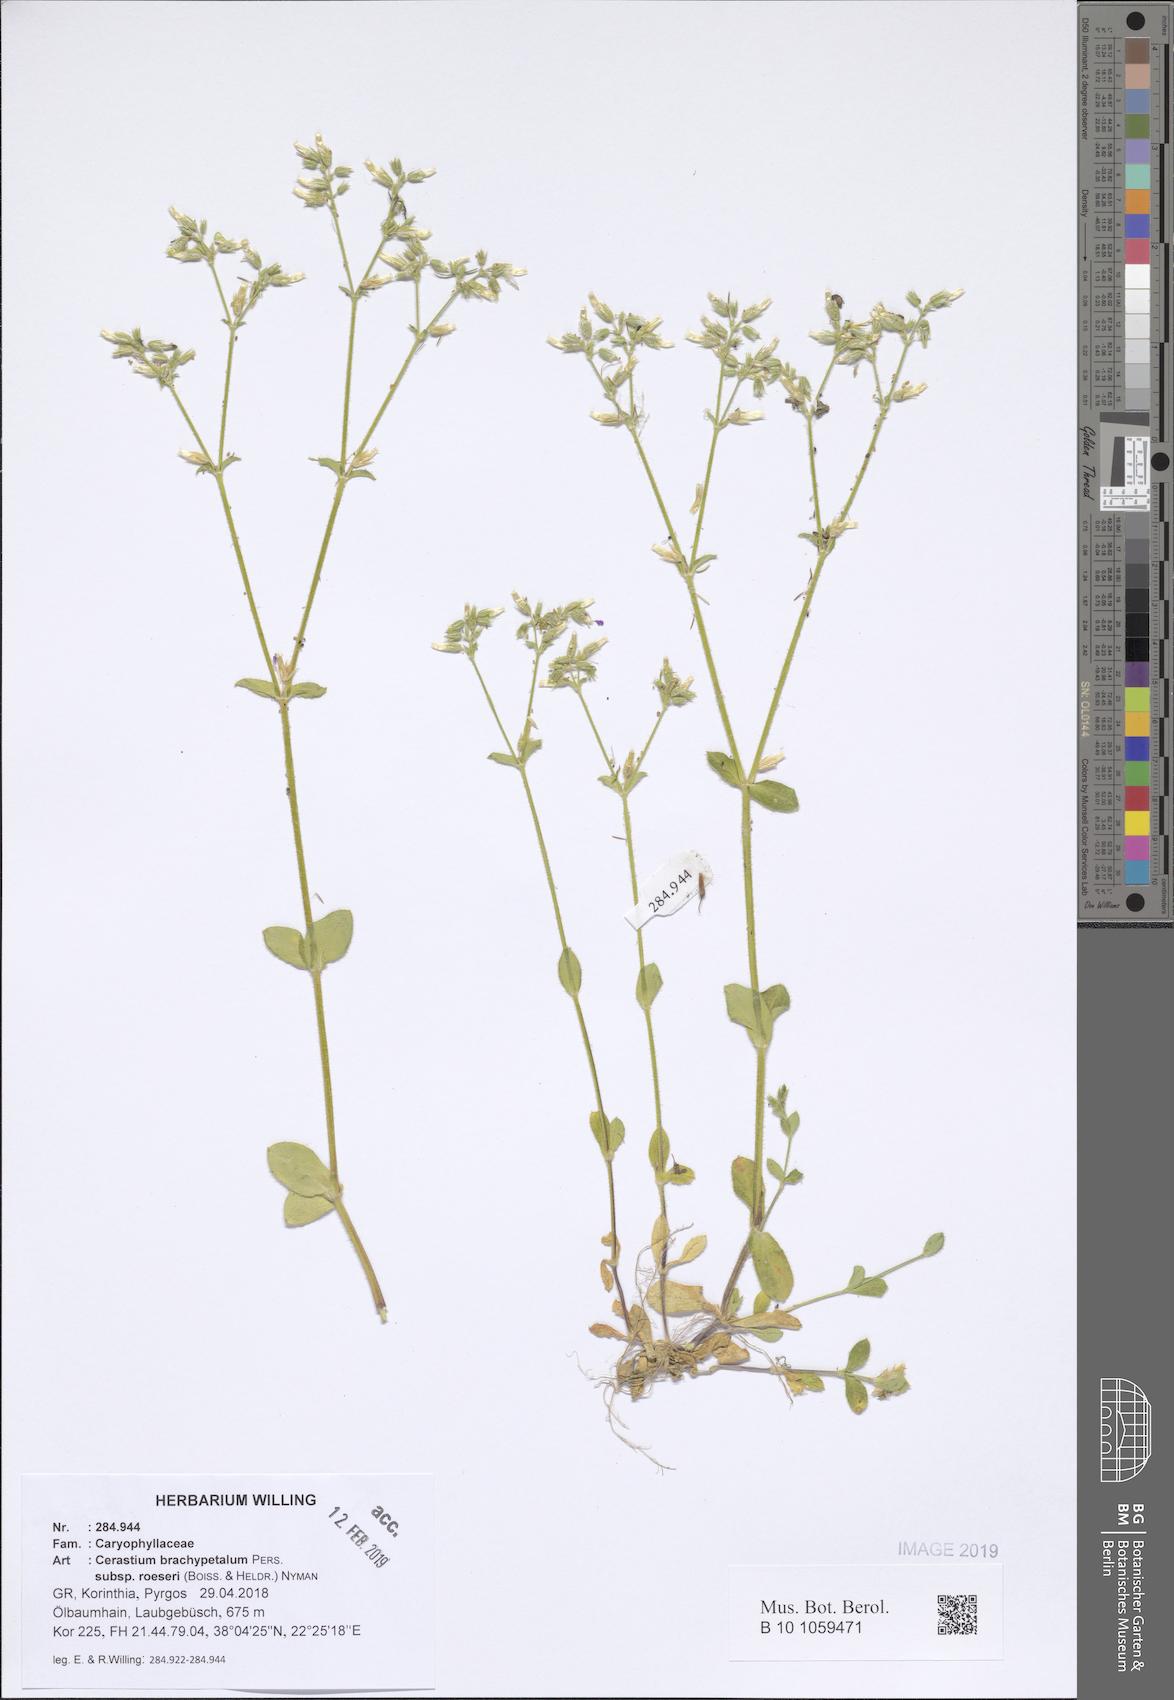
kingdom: Plantae
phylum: Tracheophyta
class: Magnoliopsida
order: Caryophyllales
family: Caryophyllaceae
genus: Cerastium
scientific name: Cerastium brachypetalum
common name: Grey mouse-ear
